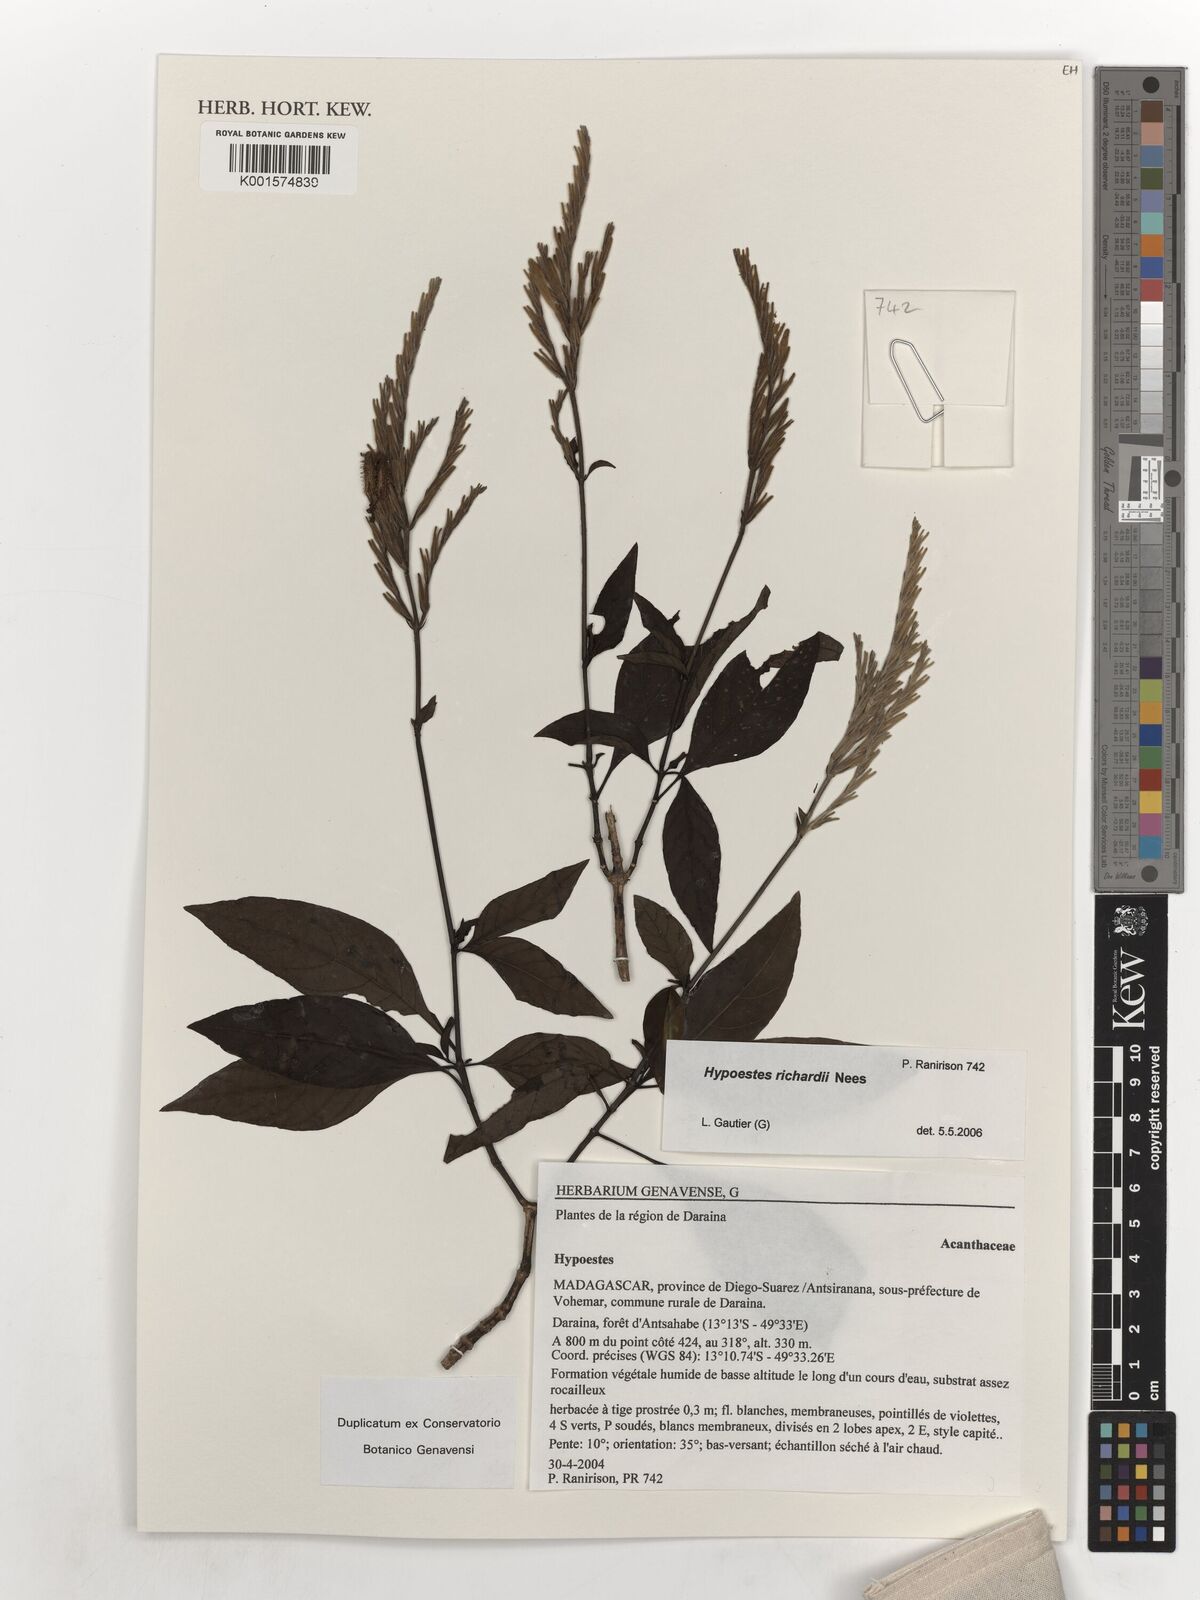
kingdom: Plantae
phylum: Tracheophyta
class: Magnoliopsida
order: Lamiales
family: Acanthaceae
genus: Hypoestes
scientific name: Hypoestes richardii
